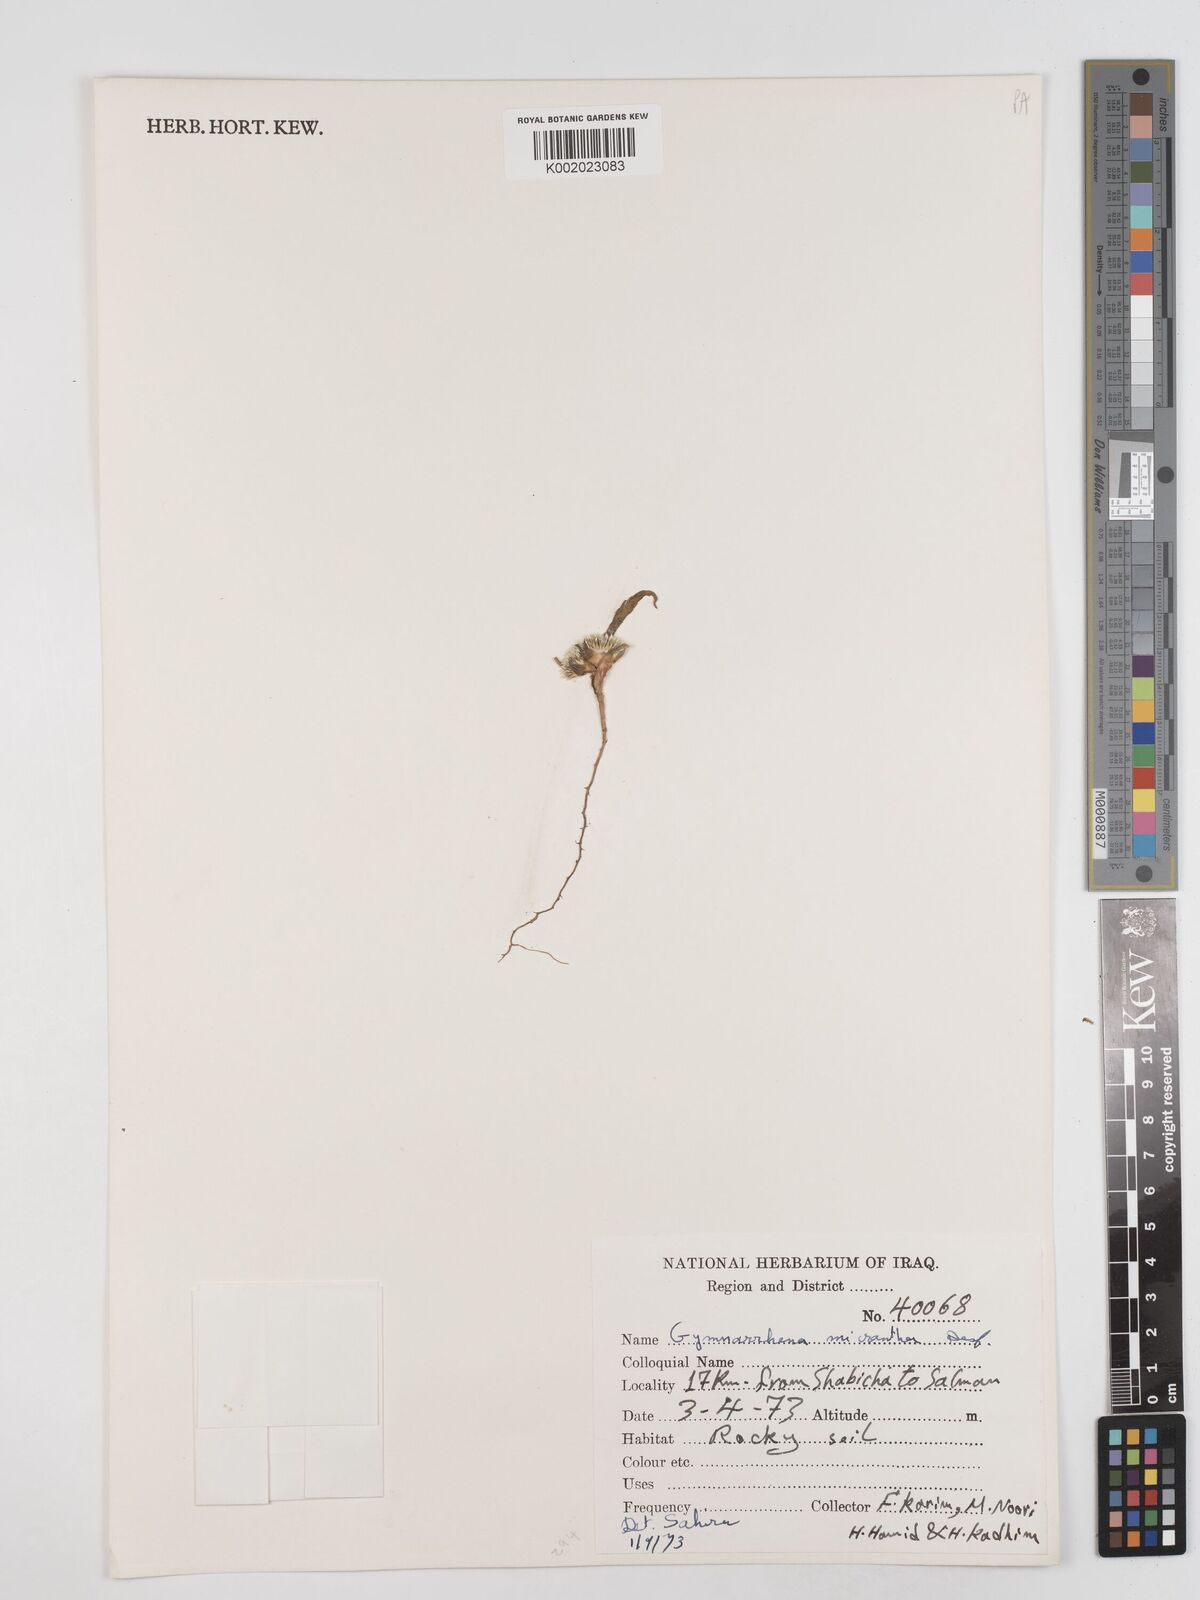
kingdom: Plantae
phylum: Tracheophyta
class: Magnoliopsida
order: Asterales
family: Asteraceae
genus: Gymnarrhena
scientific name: Gymnarrhena micrantha
